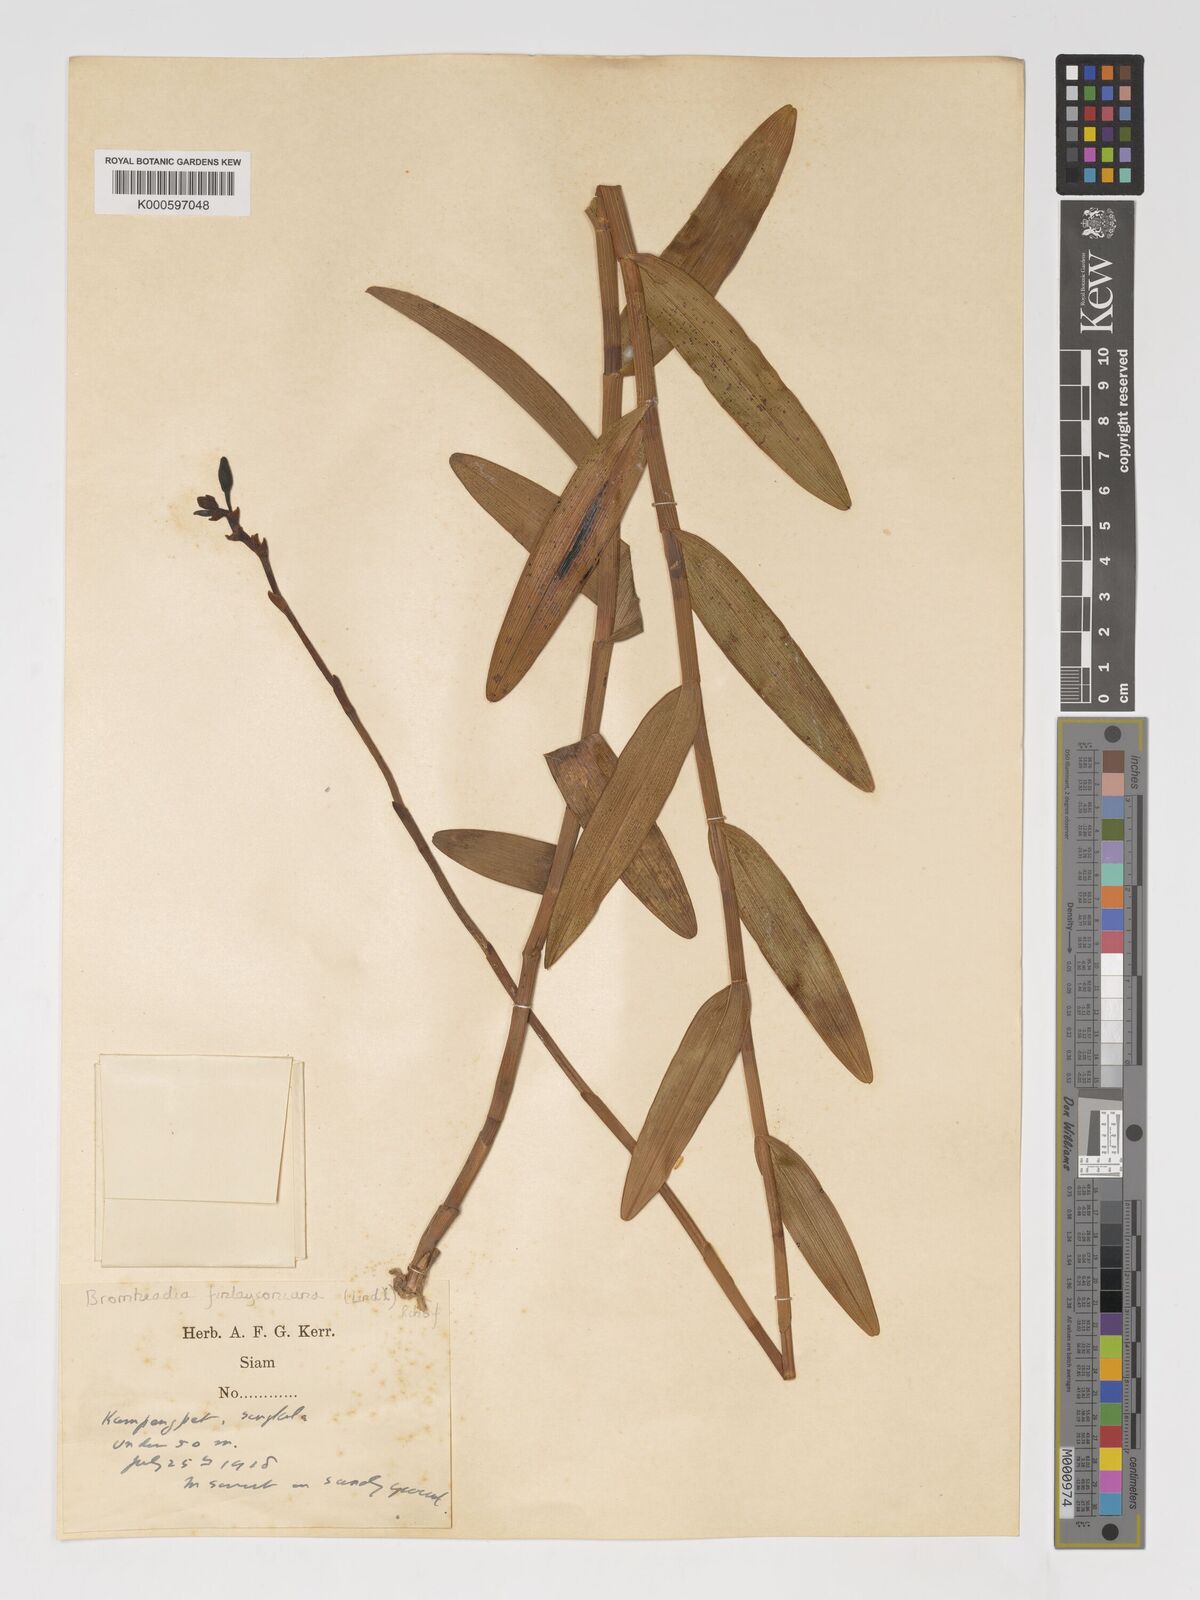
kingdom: Plantae
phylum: Tracheophyta
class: Liliopsida
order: Asparagales
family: Orchidaceae
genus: Bromheadia
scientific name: Bromheadia
